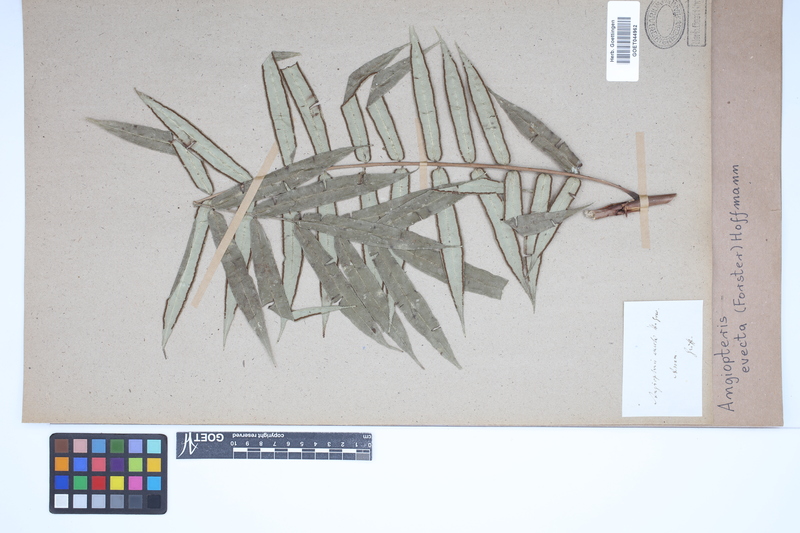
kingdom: Plantae
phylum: Tracheophyta
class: Polypodiopsida
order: Marattiales
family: Marattiaceae
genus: Angiopteris
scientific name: Angiopteris evecta
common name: Mule's-foot fern
